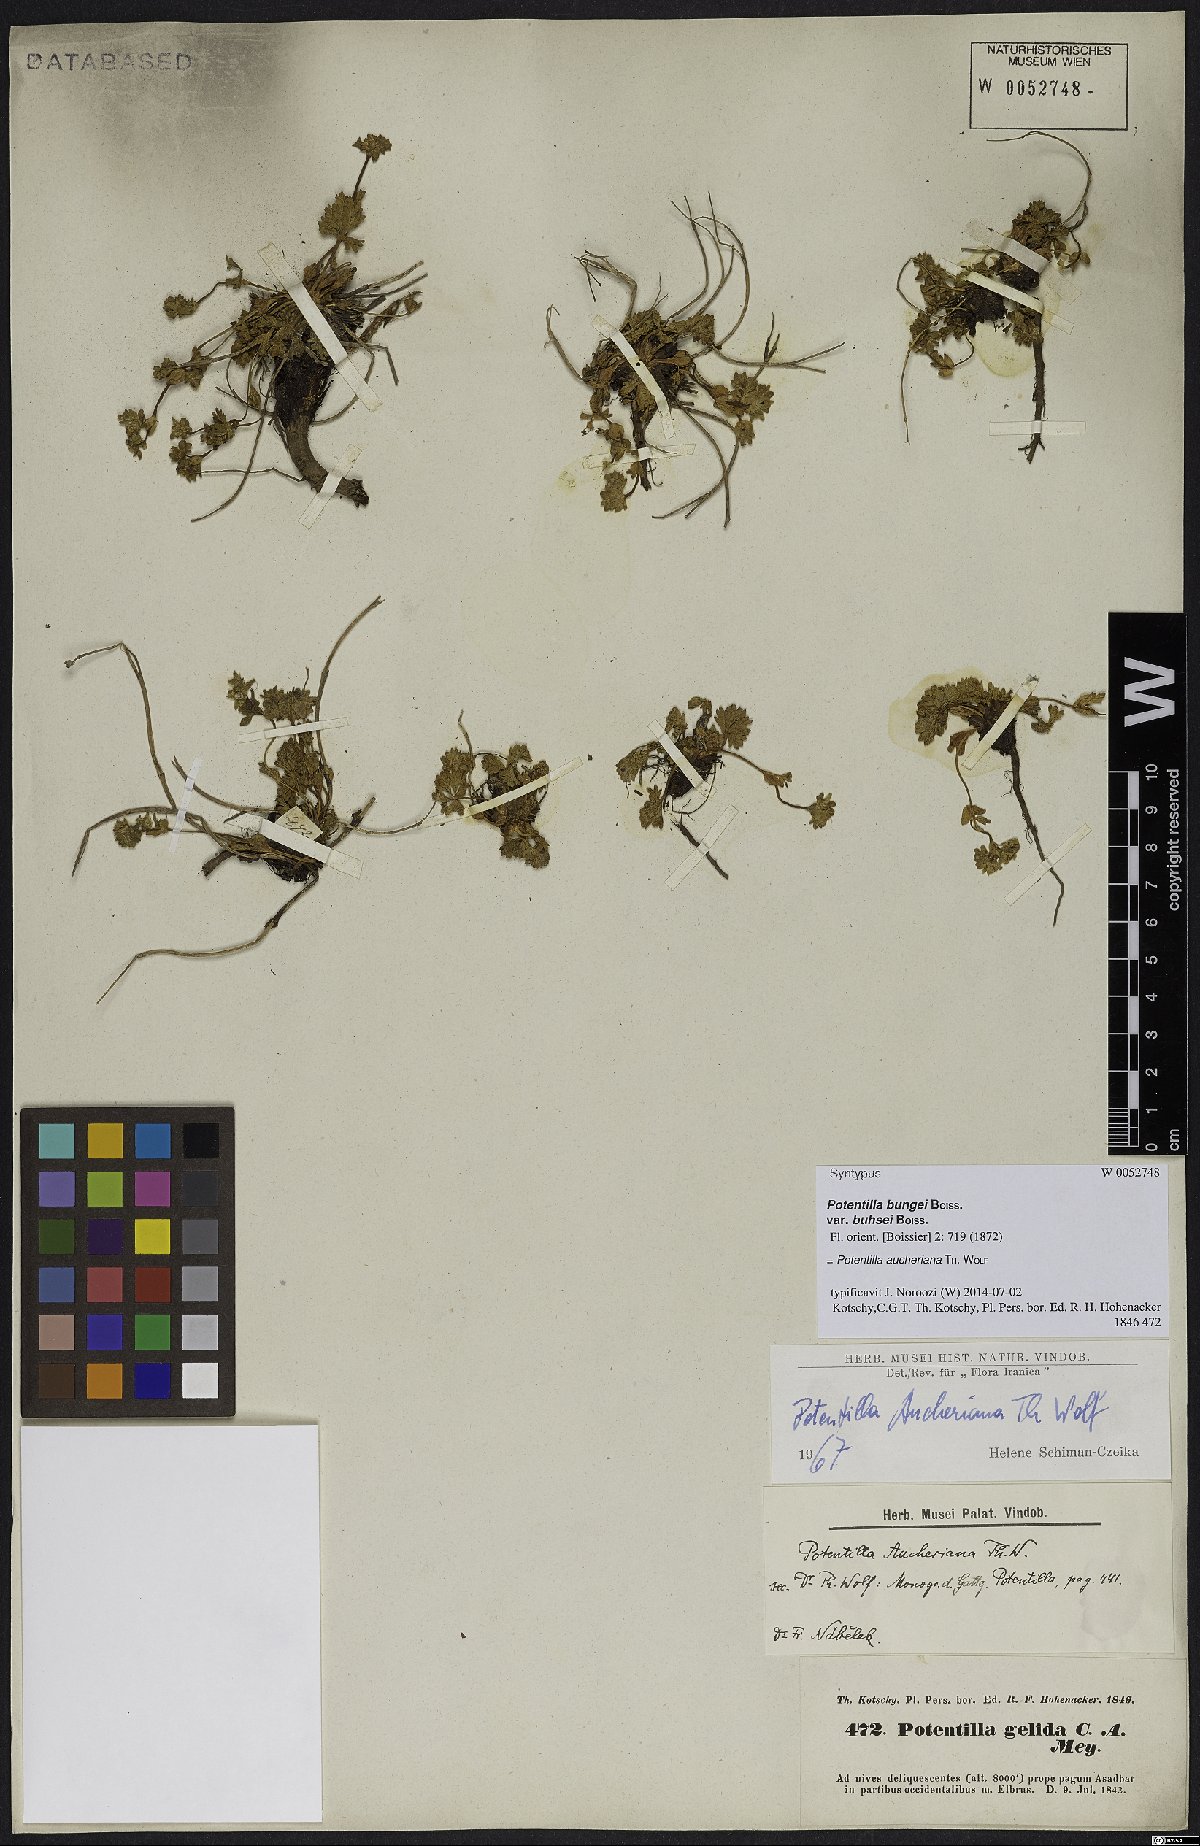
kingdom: Plantae
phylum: Tracheophyta
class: Magnoliopsida
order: Rosales
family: Rosaceae
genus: Potentilla
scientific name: Potentilla aucheriana
